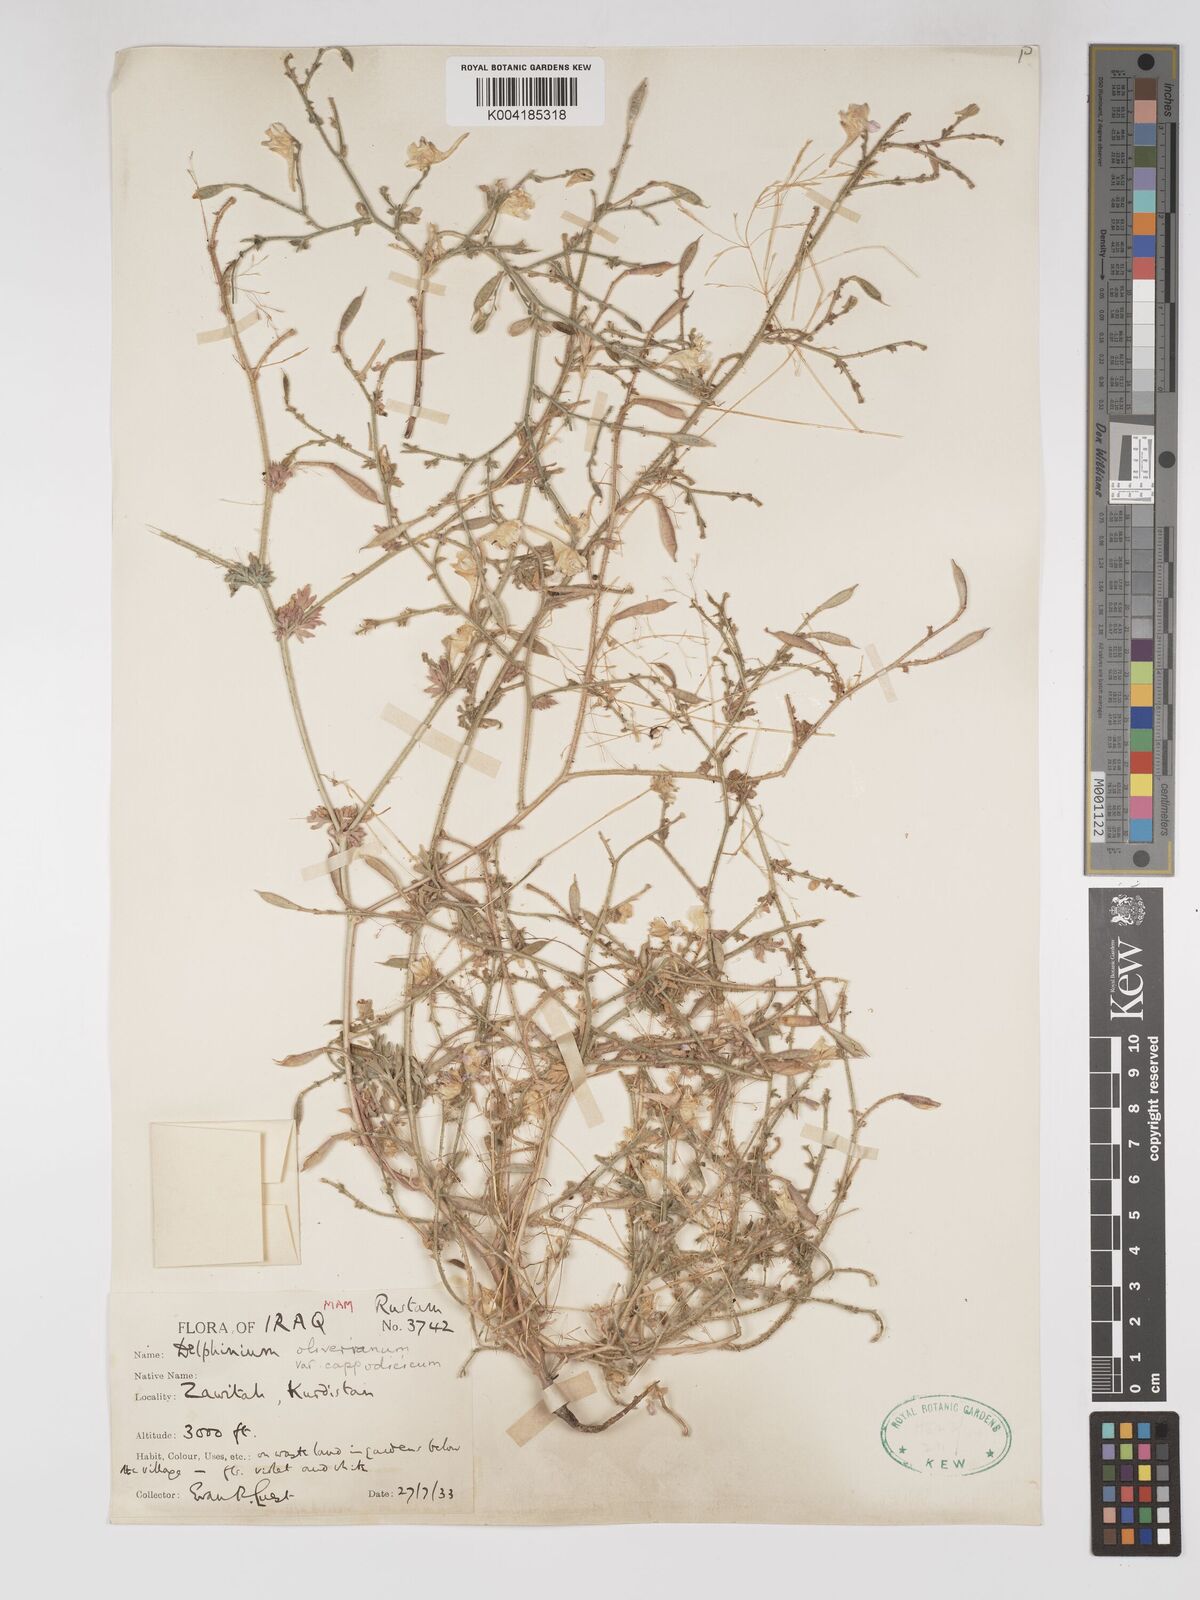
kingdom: Plantae
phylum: Tracheophyta
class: Magnoliopsida
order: Ranunculales
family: Ranunculaceae
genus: Delphinium
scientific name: Delphinium oliverianum
